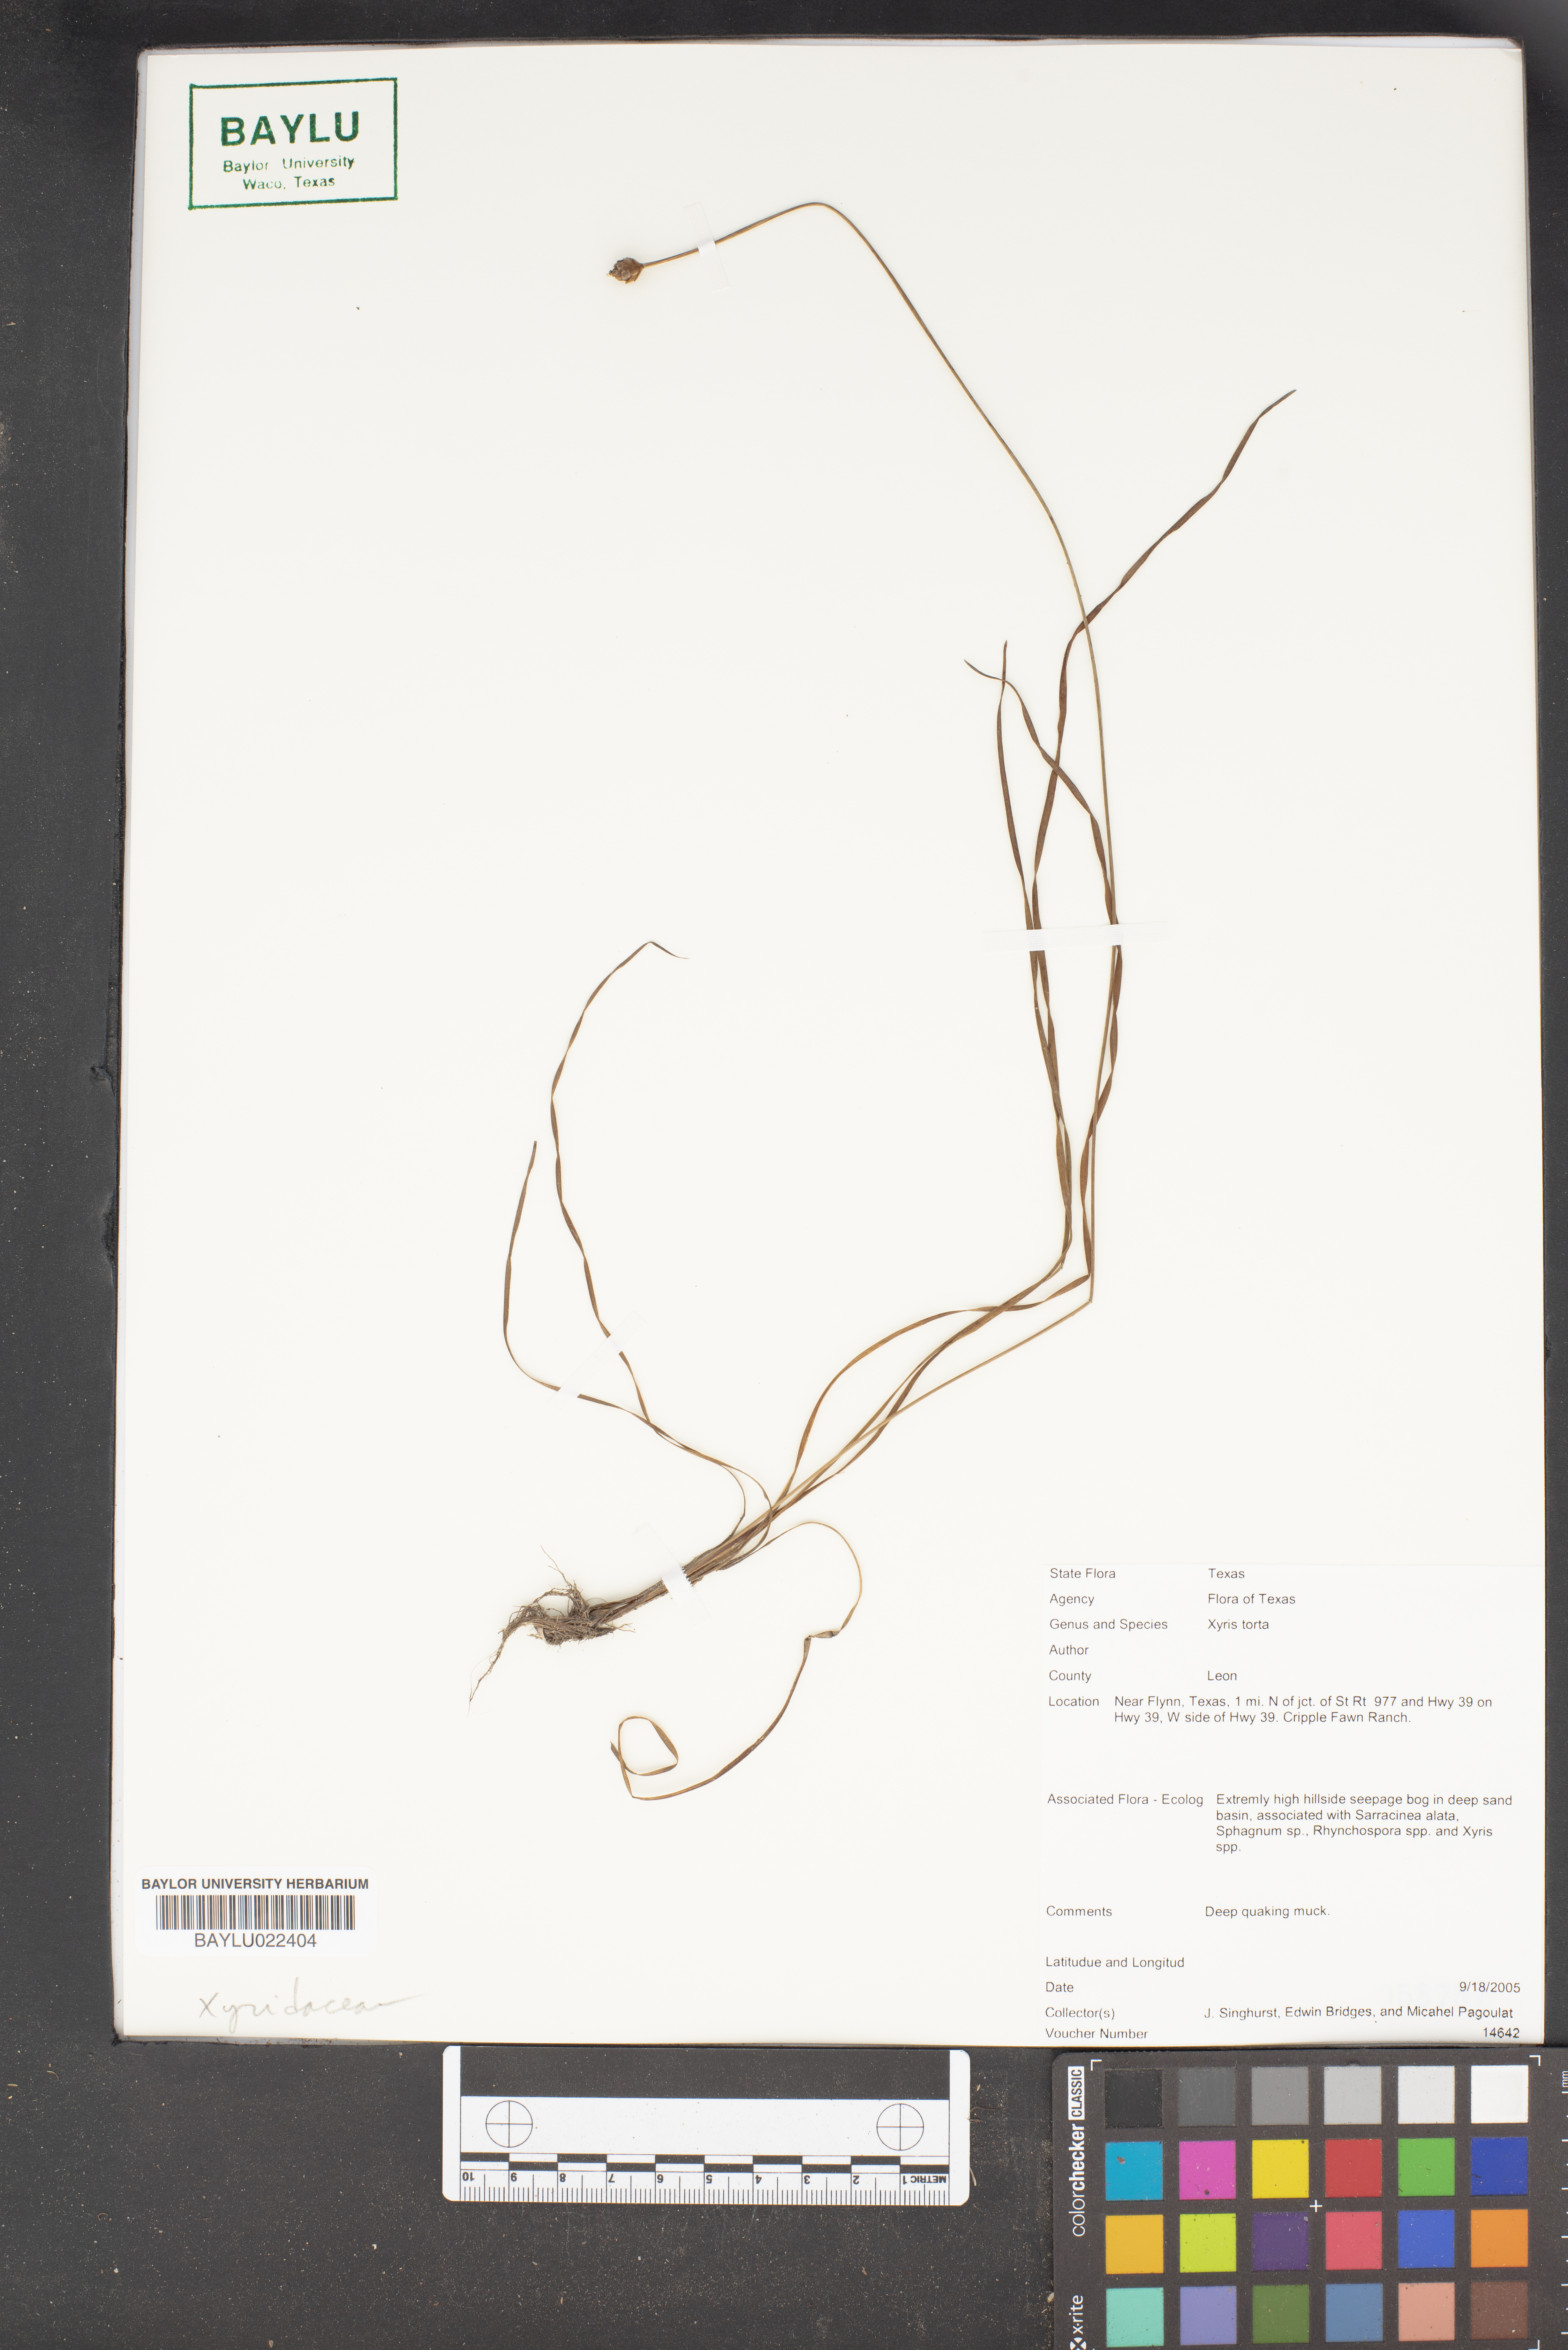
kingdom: Plantae
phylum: Tracheophyta
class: Liliopsida
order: Poales
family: Xyridaceae
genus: Xyris
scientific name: Xyris torta
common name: Common yelloweyed grass
